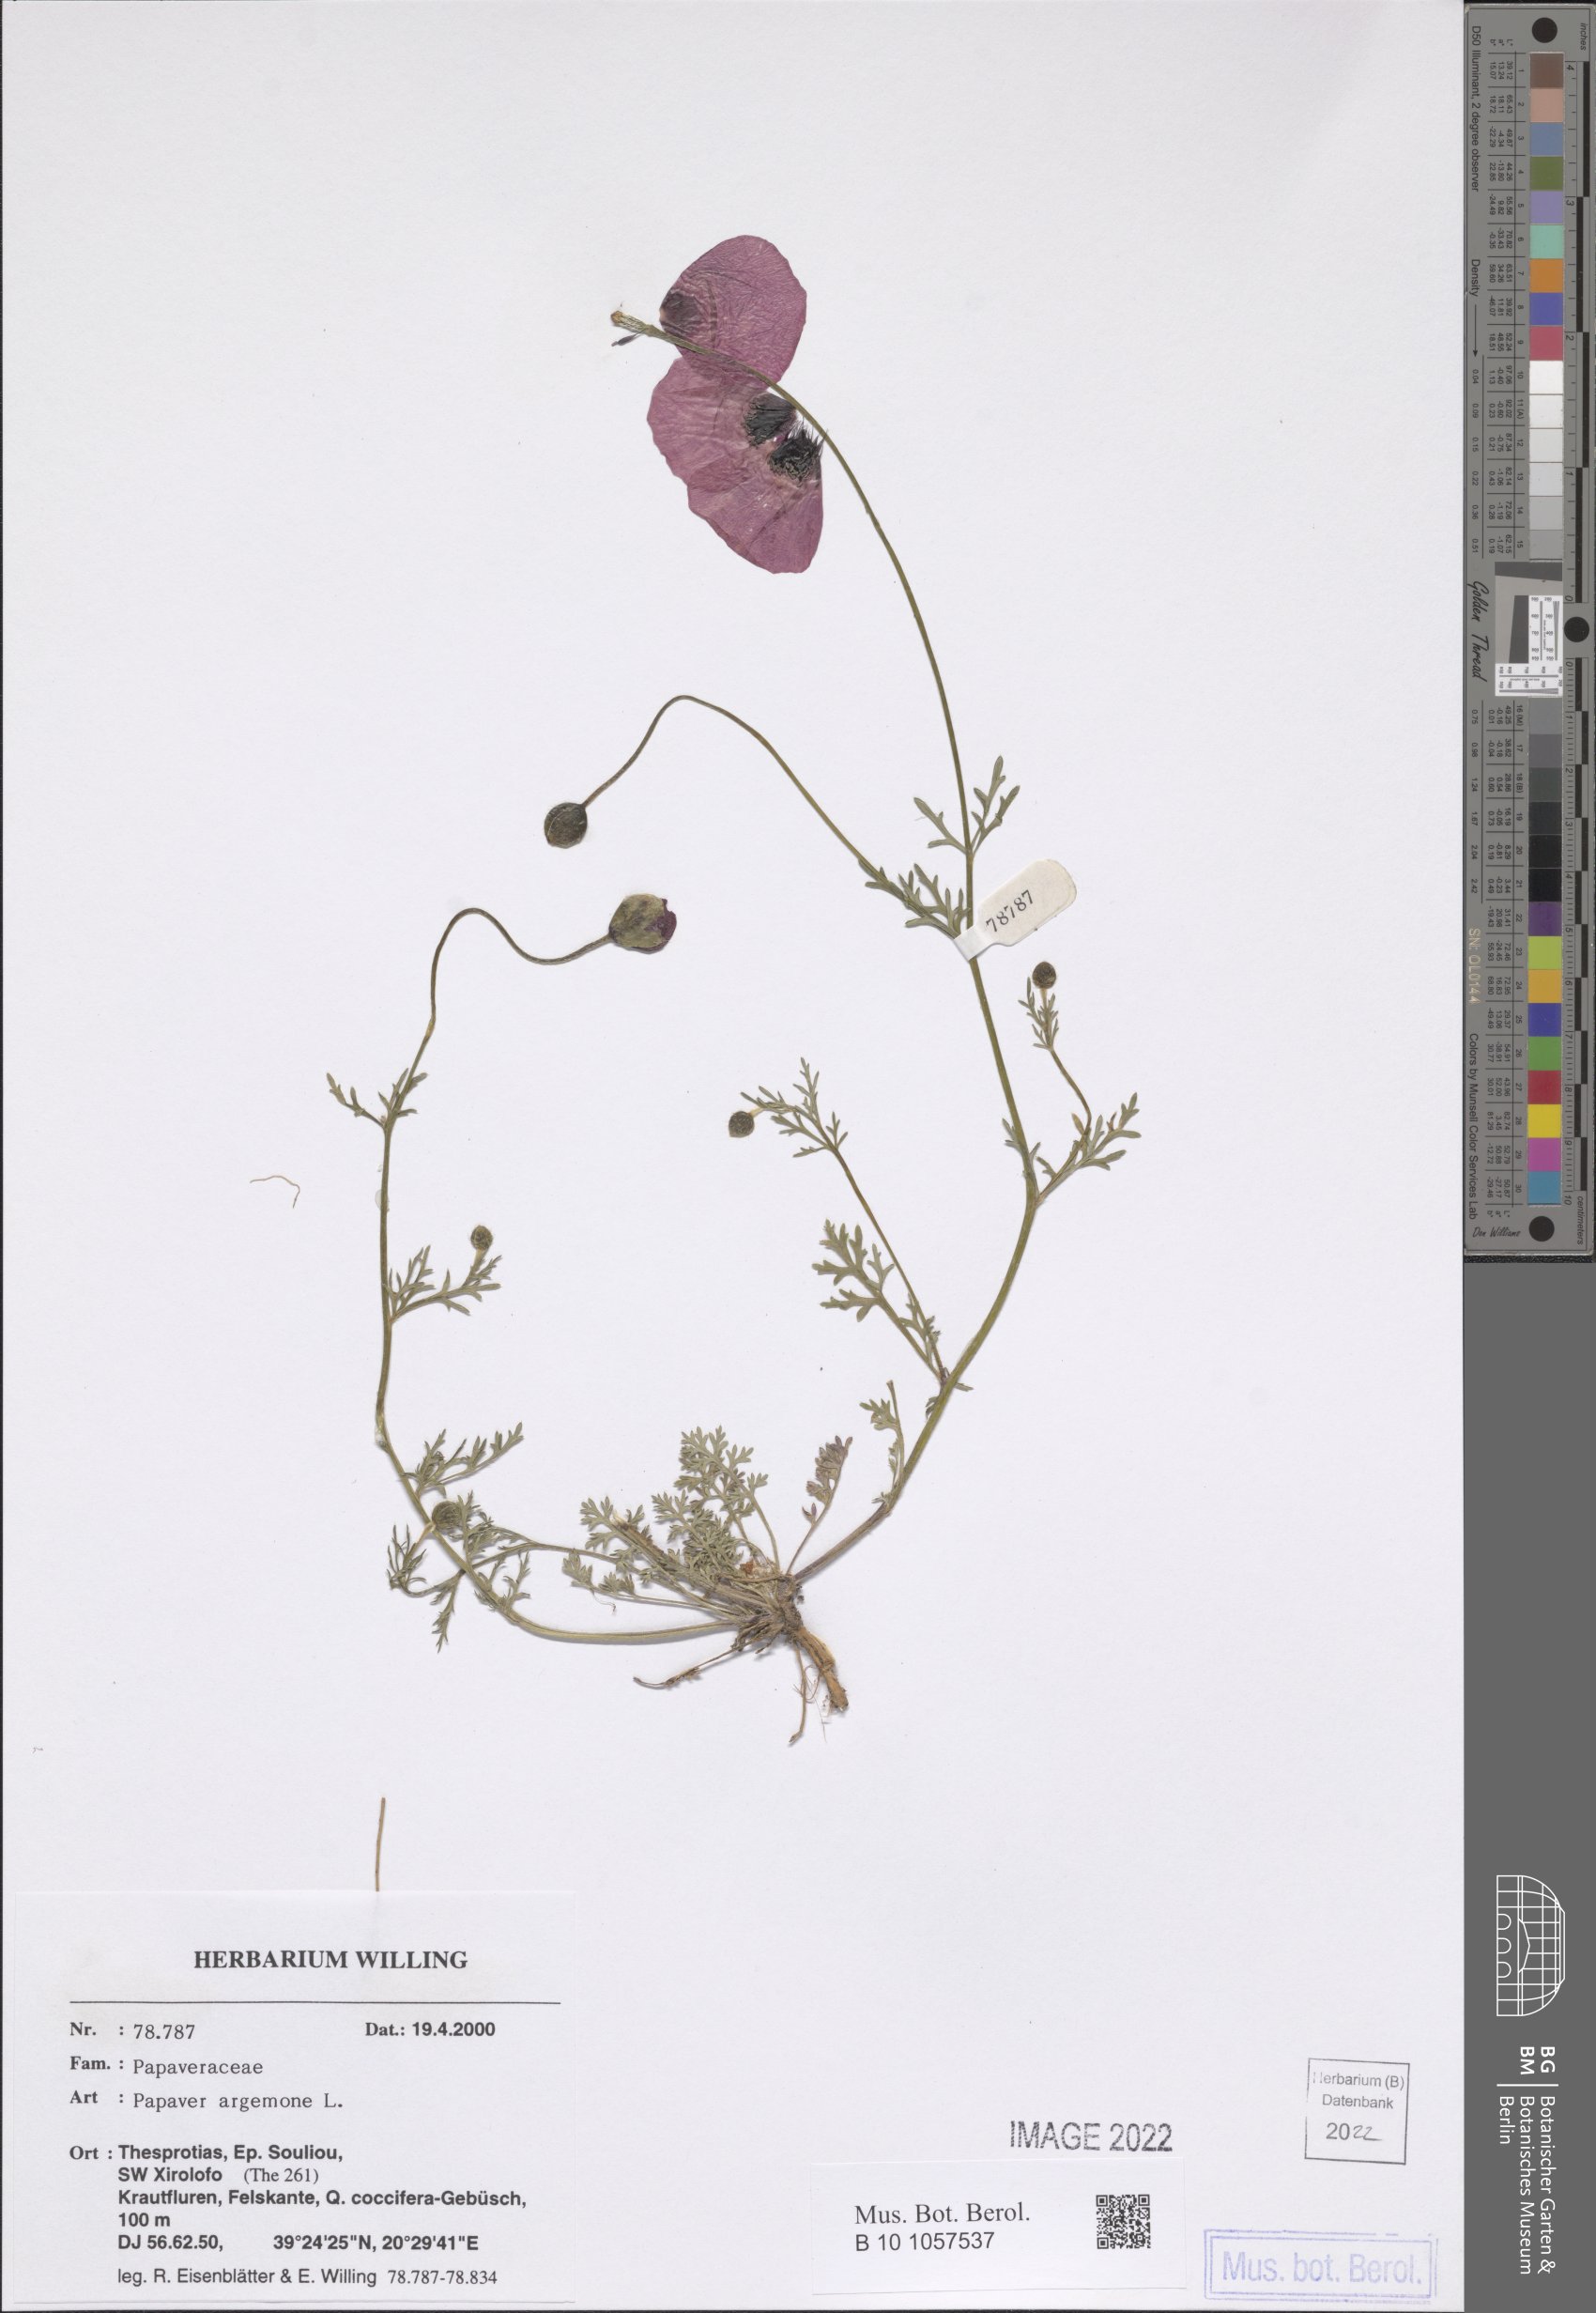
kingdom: Plantae
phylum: Tracheophyta
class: Magnoliopsida
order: Ranunculales
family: Papaveraceae
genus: Roemeria
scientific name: Roemeria argemone
